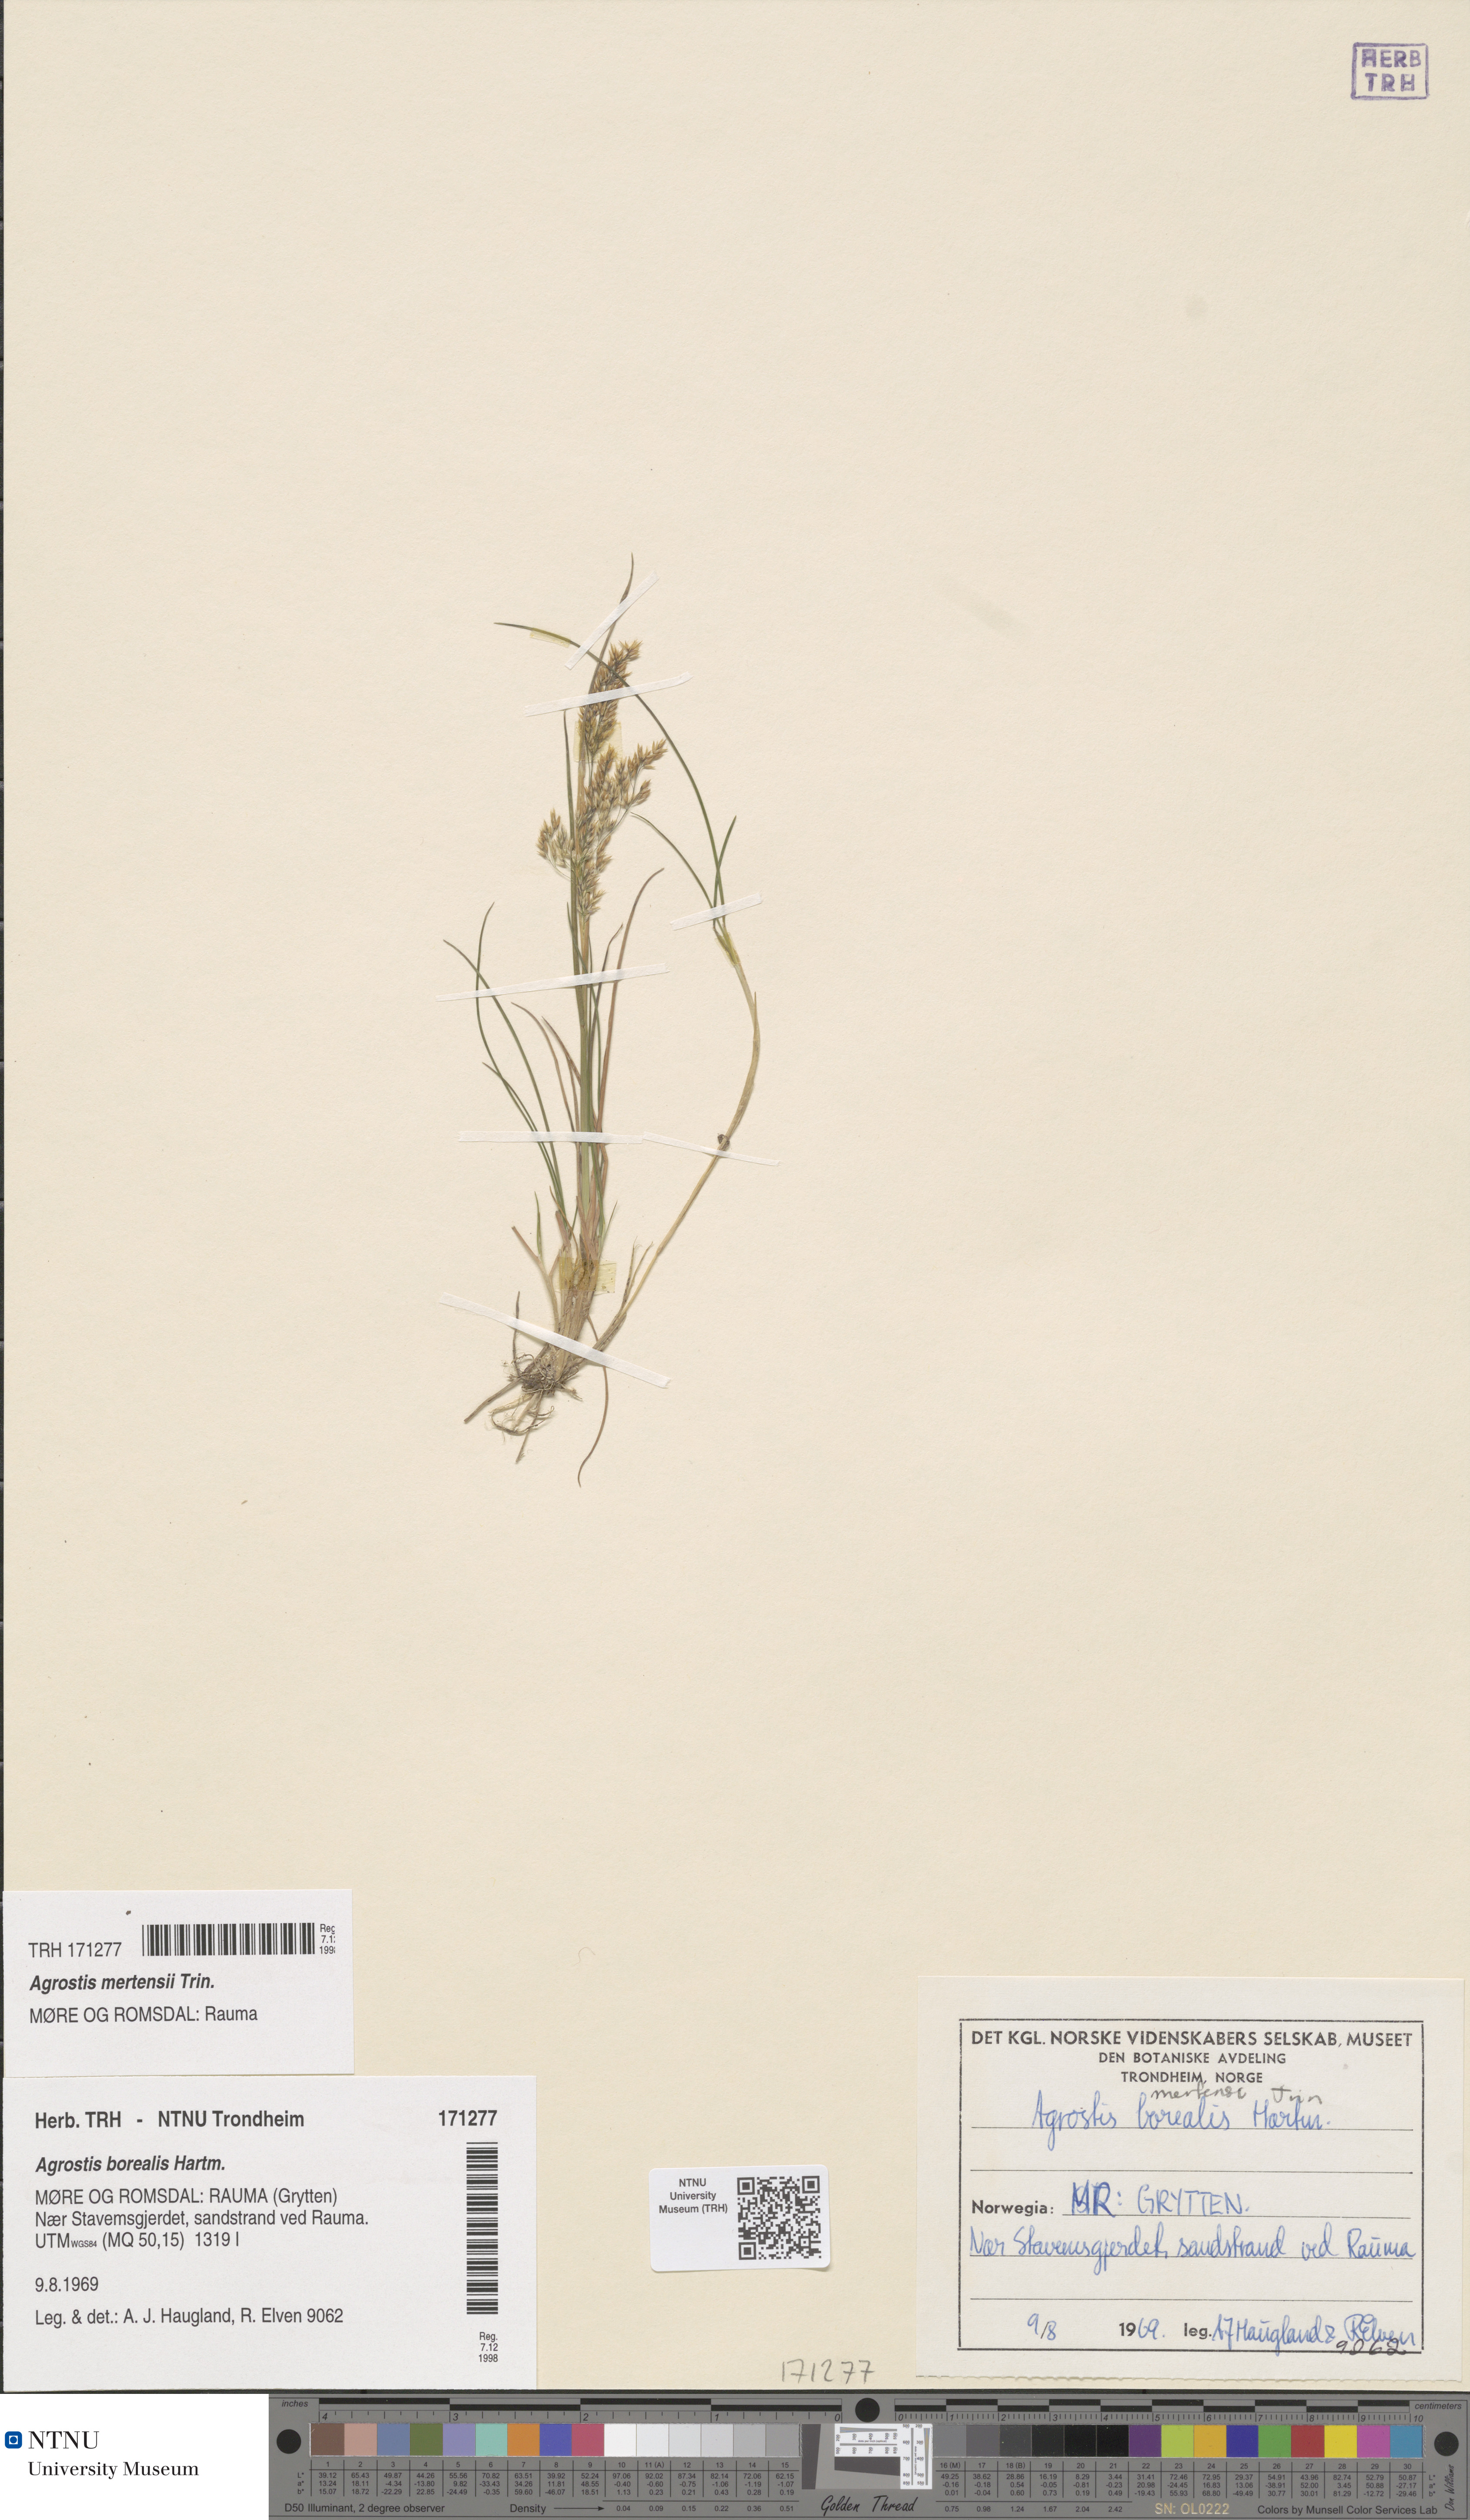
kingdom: Plantae
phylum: Tracheophyta
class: Liliopsida
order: Poales
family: Poaceae
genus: Agrostis
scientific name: Agrostis mertensii
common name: Northern bent
